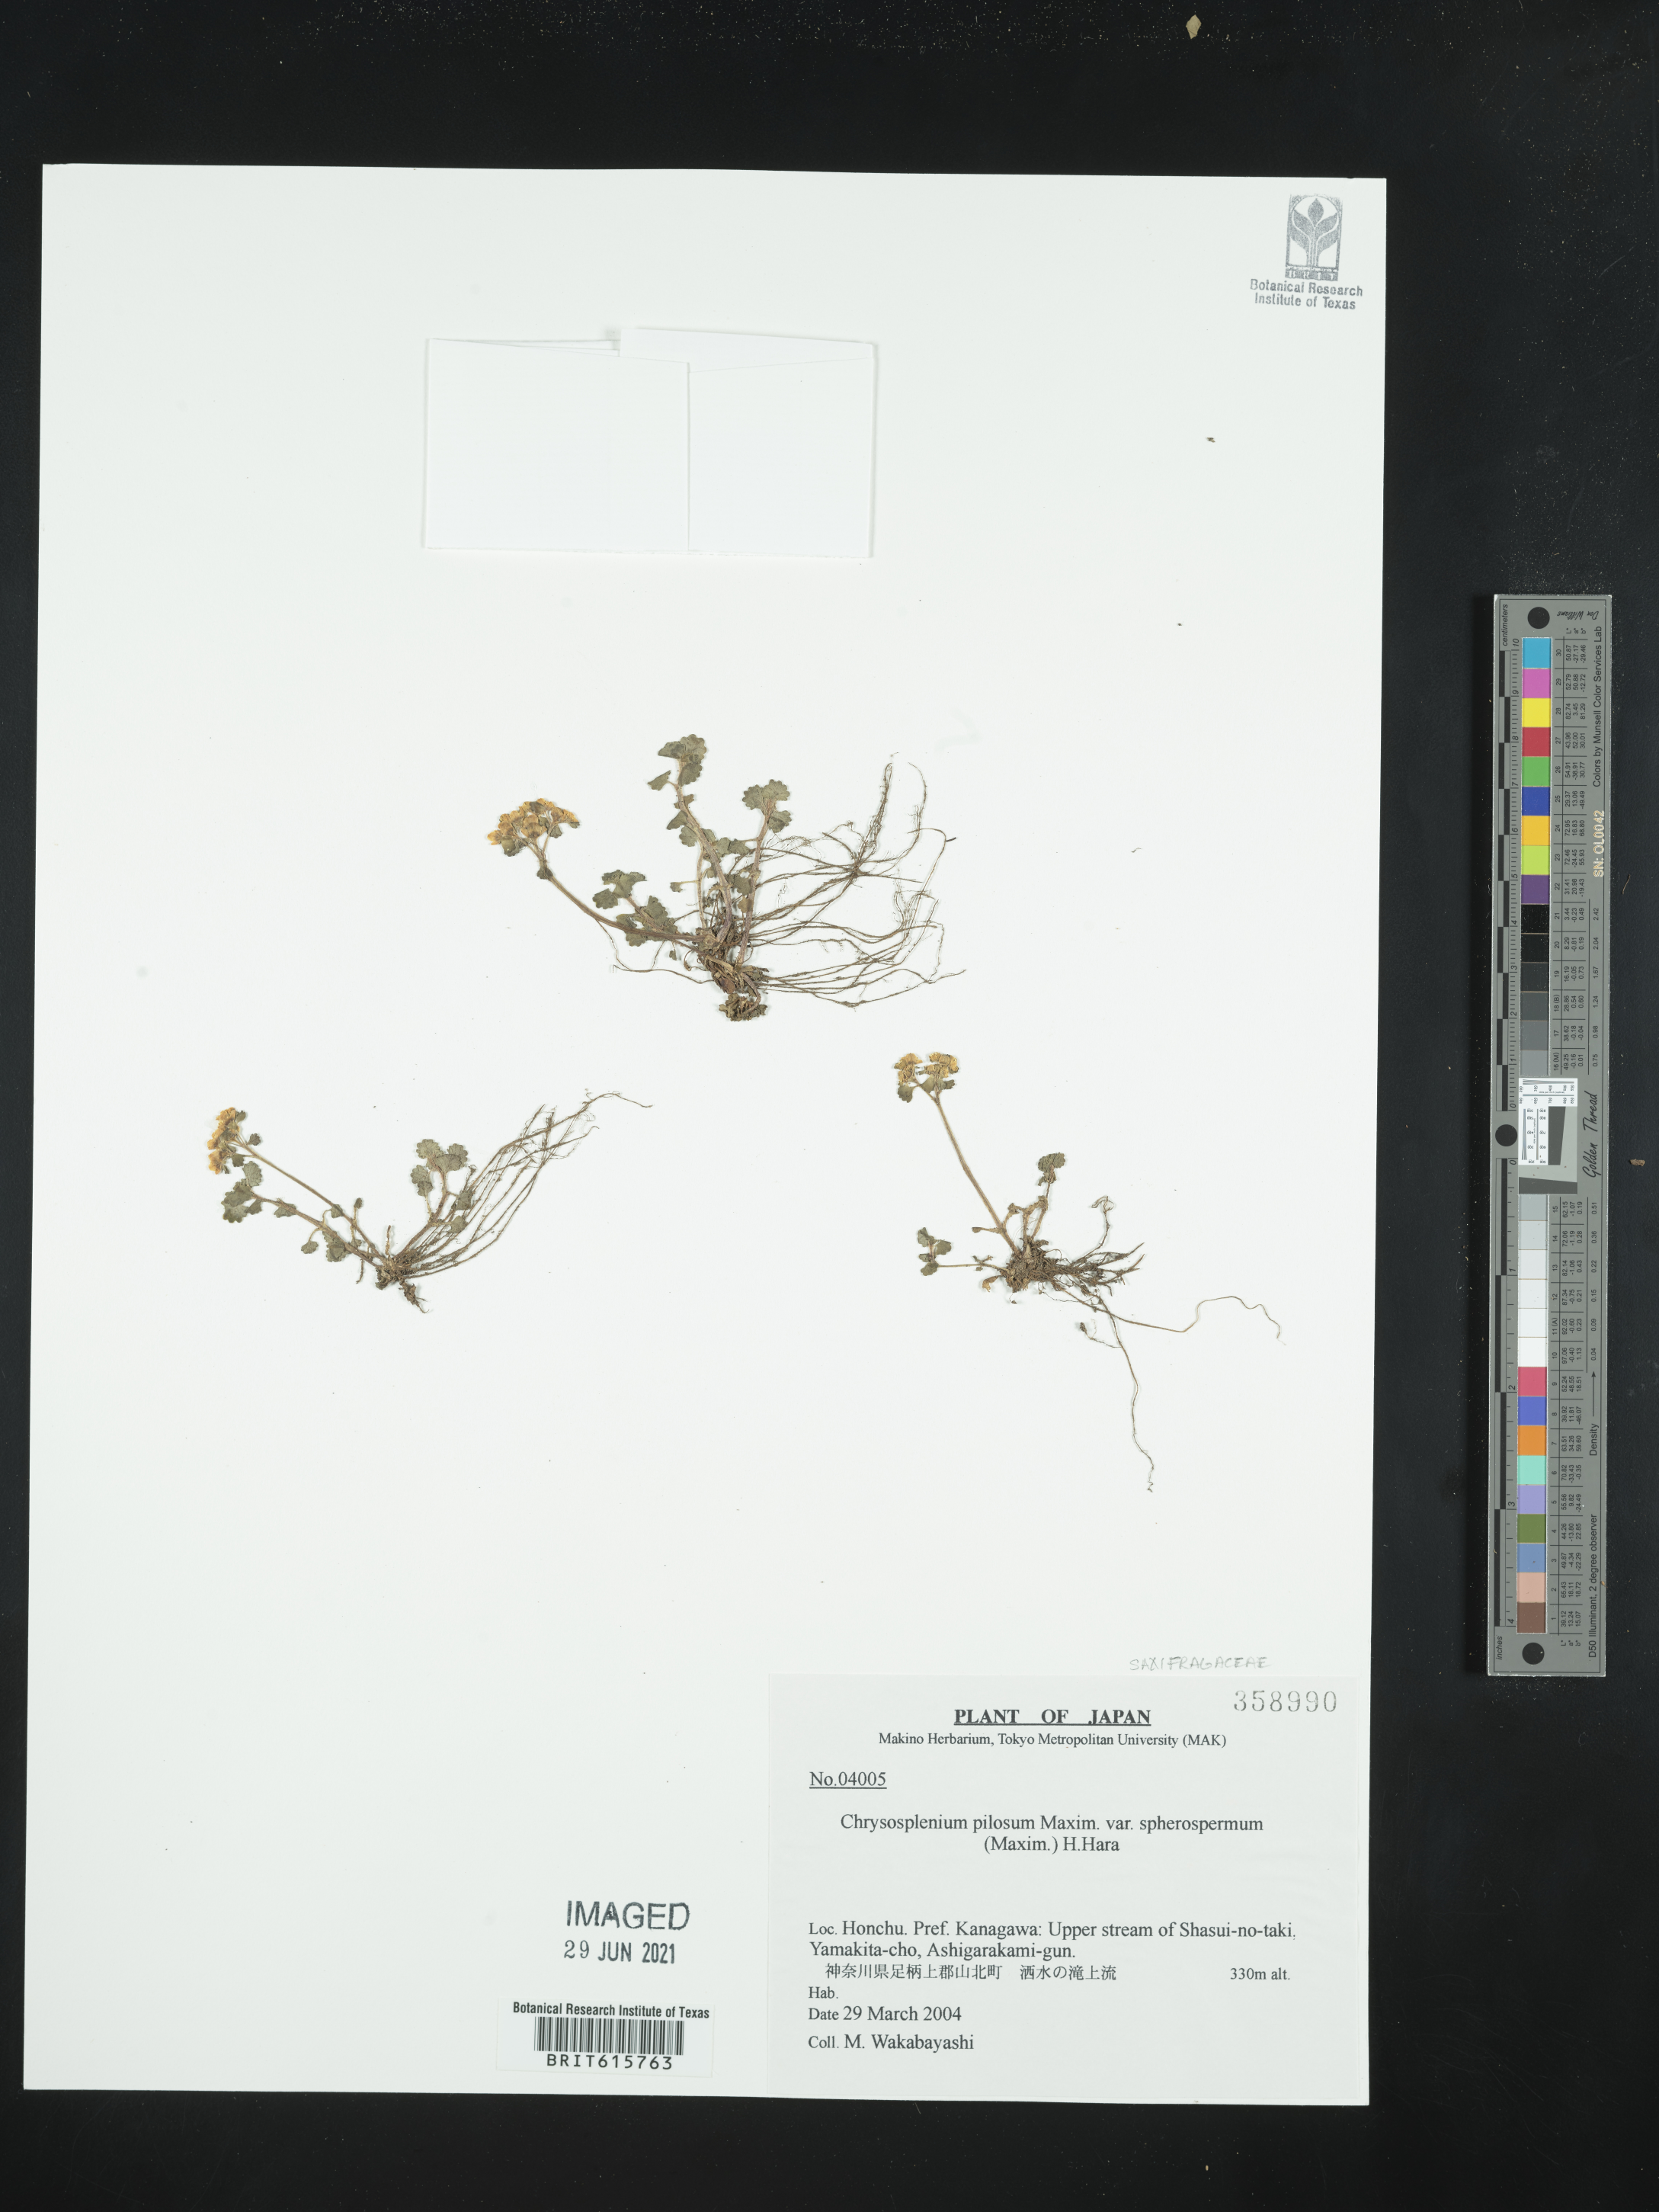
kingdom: Plantae
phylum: Tracheophyta
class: Magnoliopsida
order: Saxifragales
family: Saxifragaceae
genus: Chrysosplenium
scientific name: Chrysosplenium pilosum
